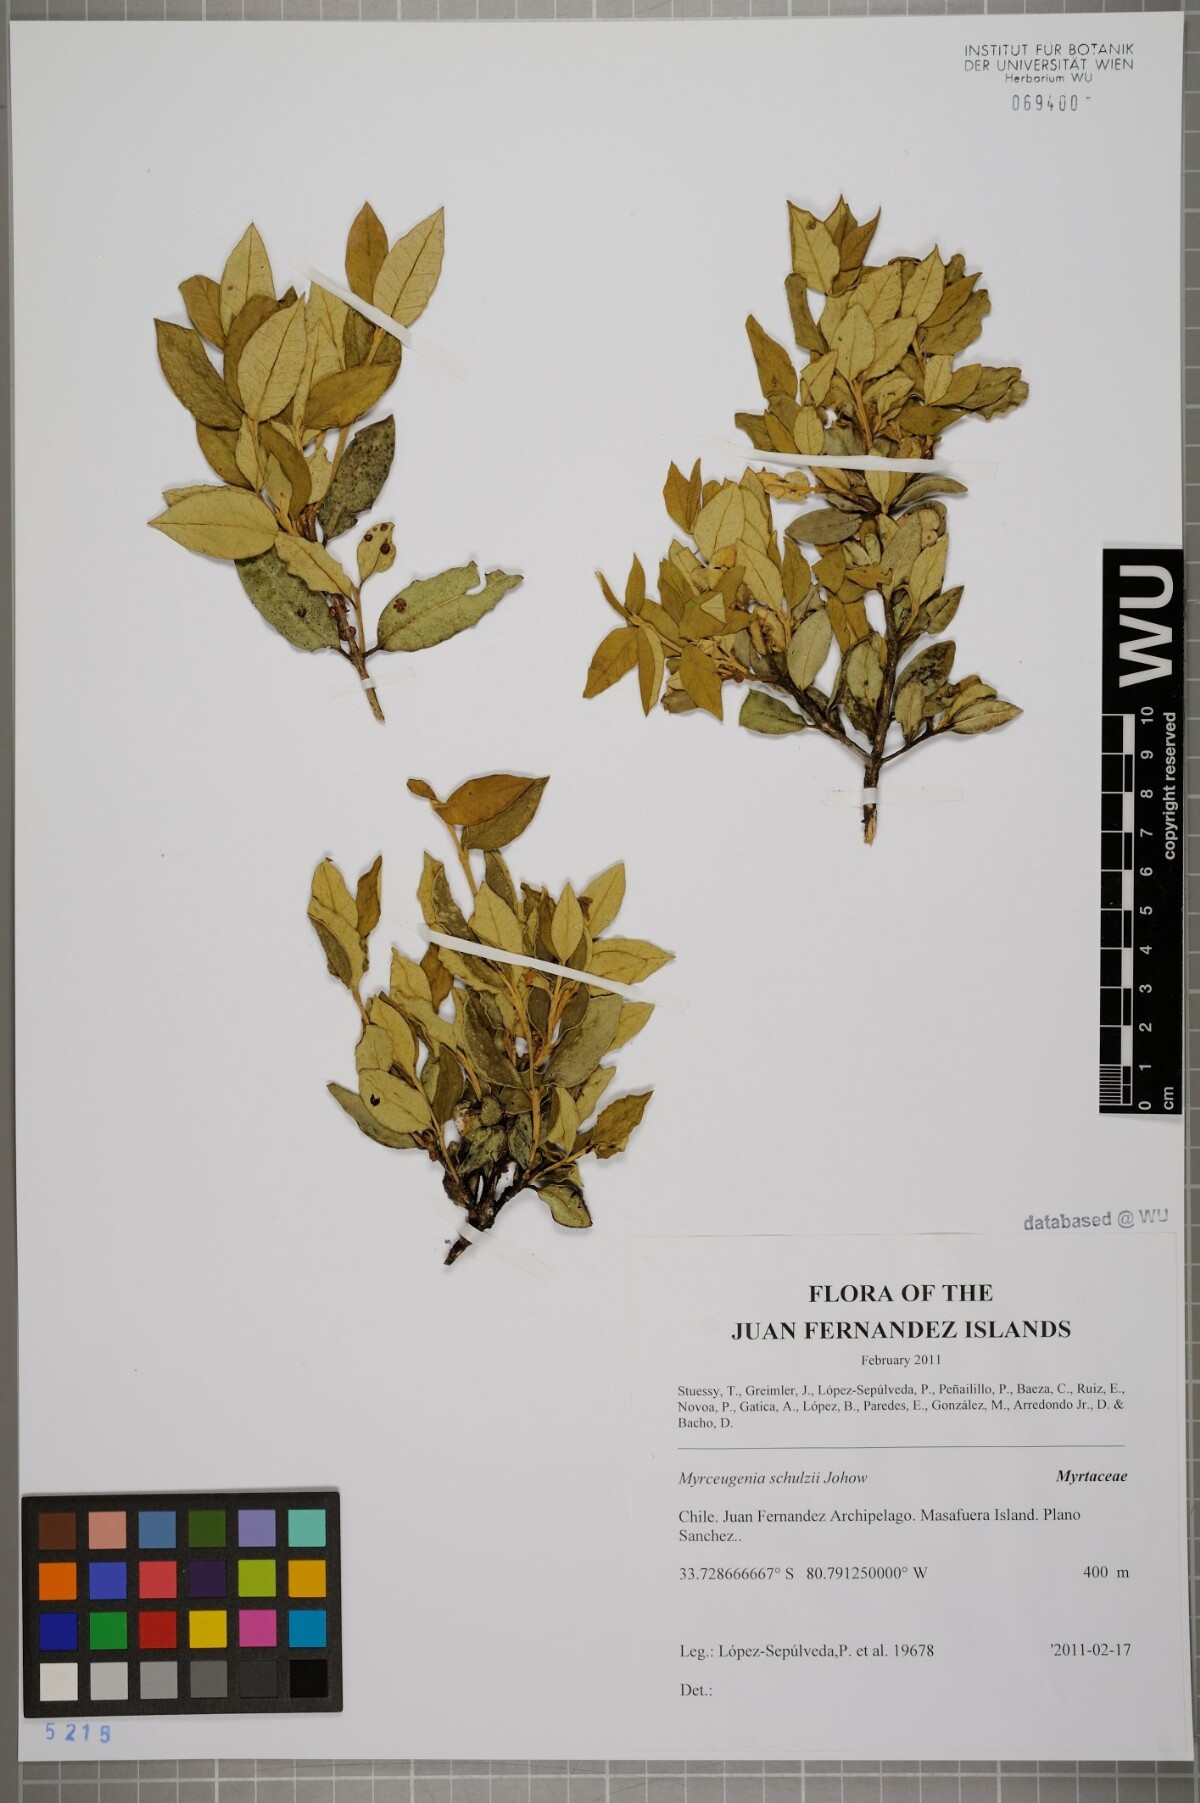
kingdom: Plantae
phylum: Tracheophyta
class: Magnoliopsida
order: Myrtales
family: Myrtaceae
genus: Myrceugenia
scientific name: Myrceugenia schulzei
